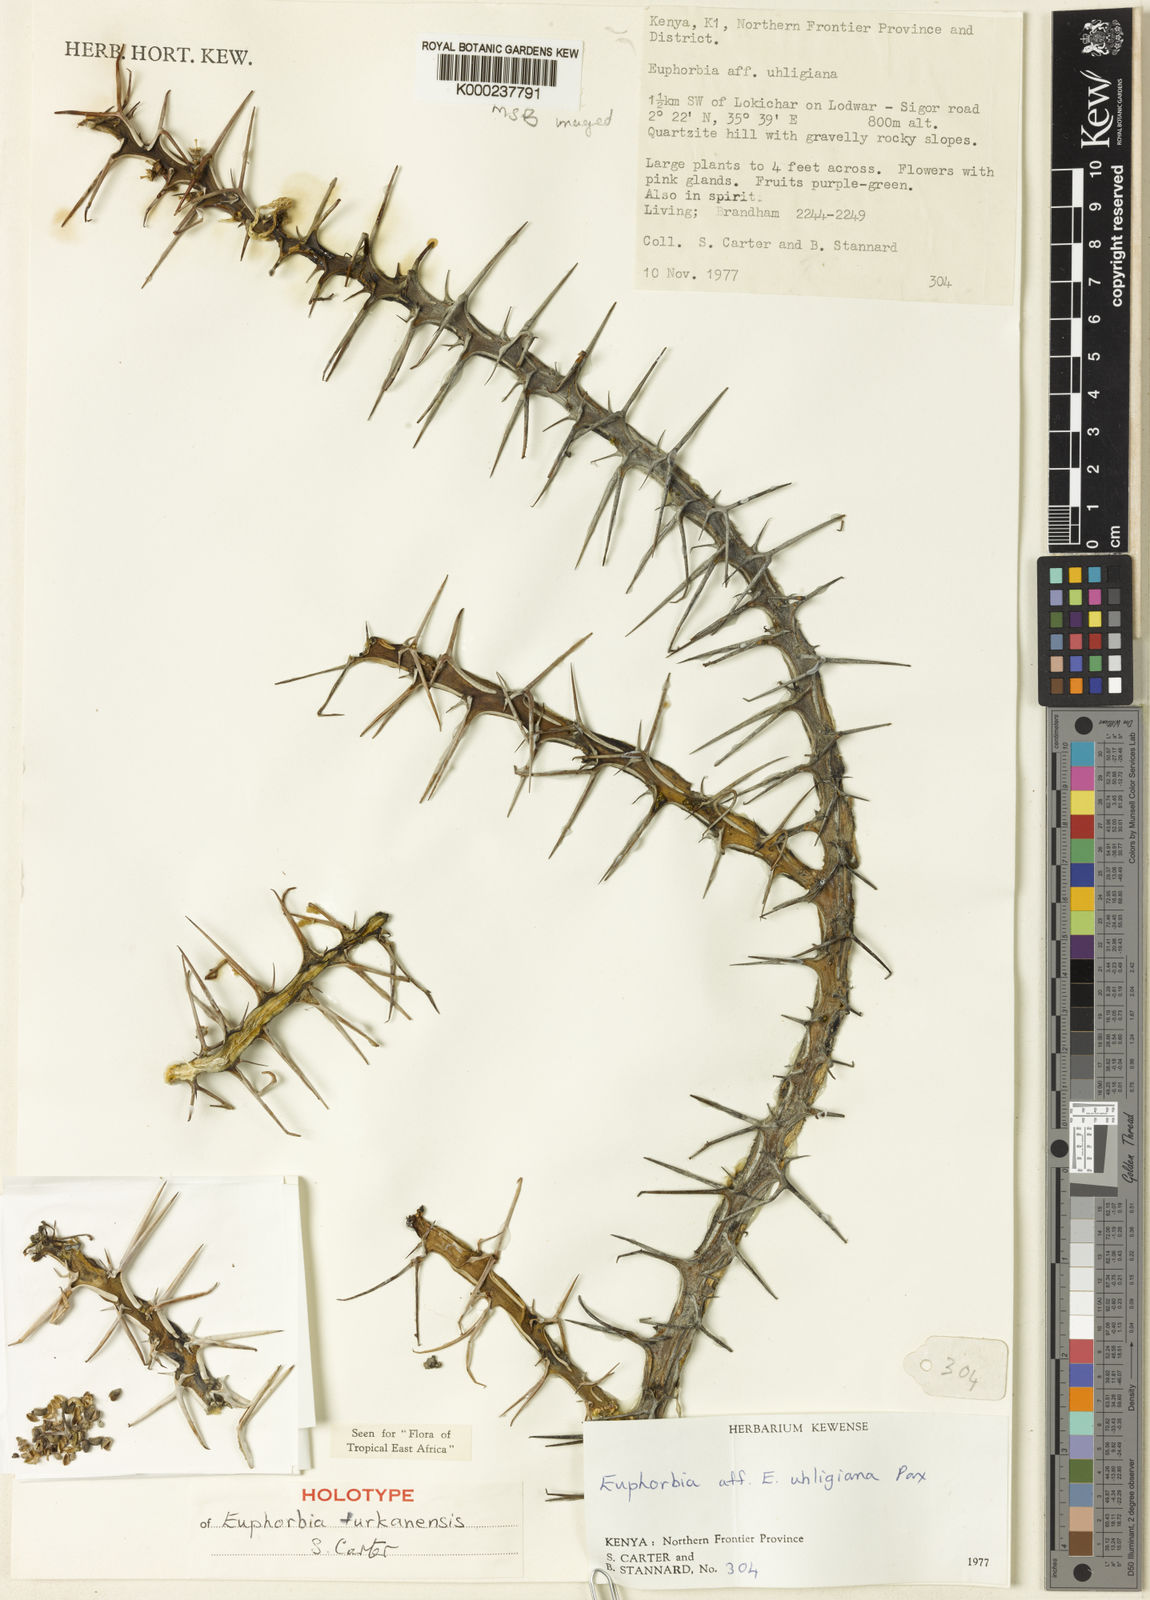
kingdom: Plantae
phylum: Tracheophyta
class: Magnoliopsida
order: Malpighiales
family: Euphorbiaceae
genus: Euphorbia
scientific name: Euphorbia turkanensis
